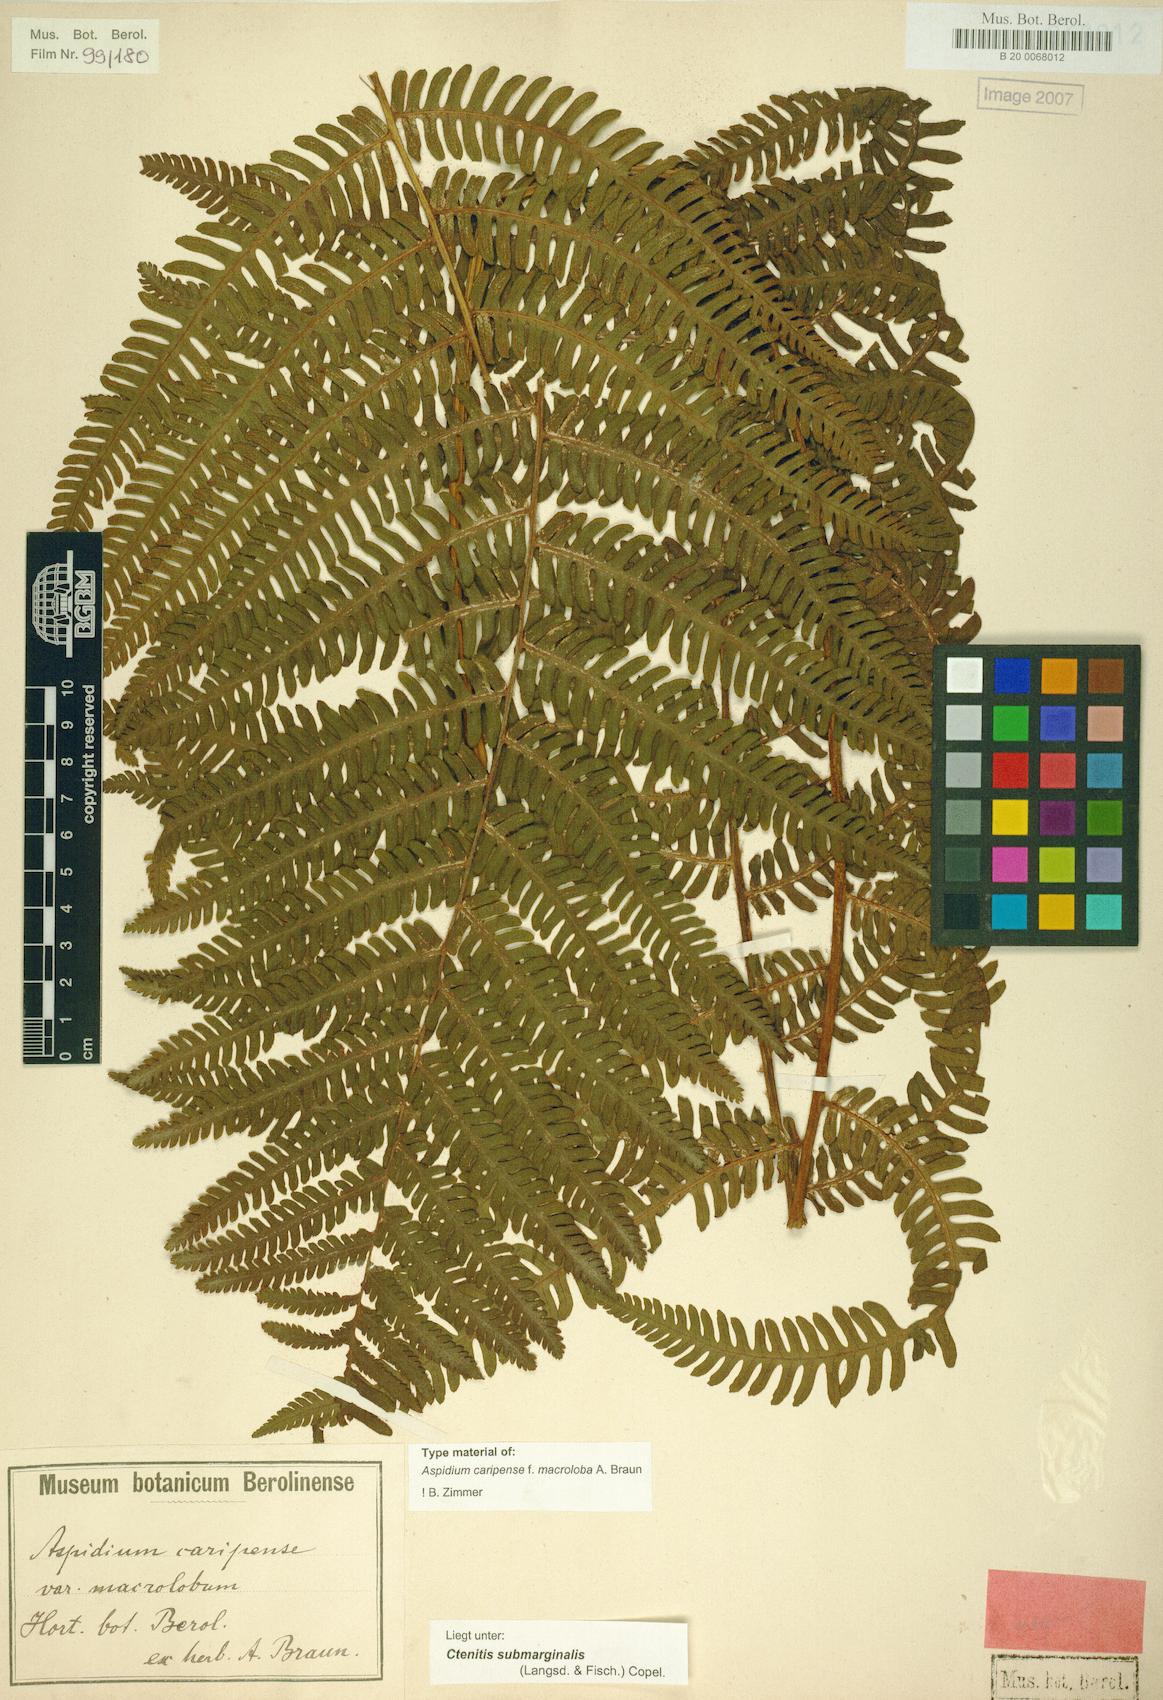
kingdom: Plantae
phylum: Tracheophyta
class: Polypodiopsida
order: Polypodiales
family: Dryopteridaceae
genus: Ctenitis
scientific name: Ctenitis submarginalis
